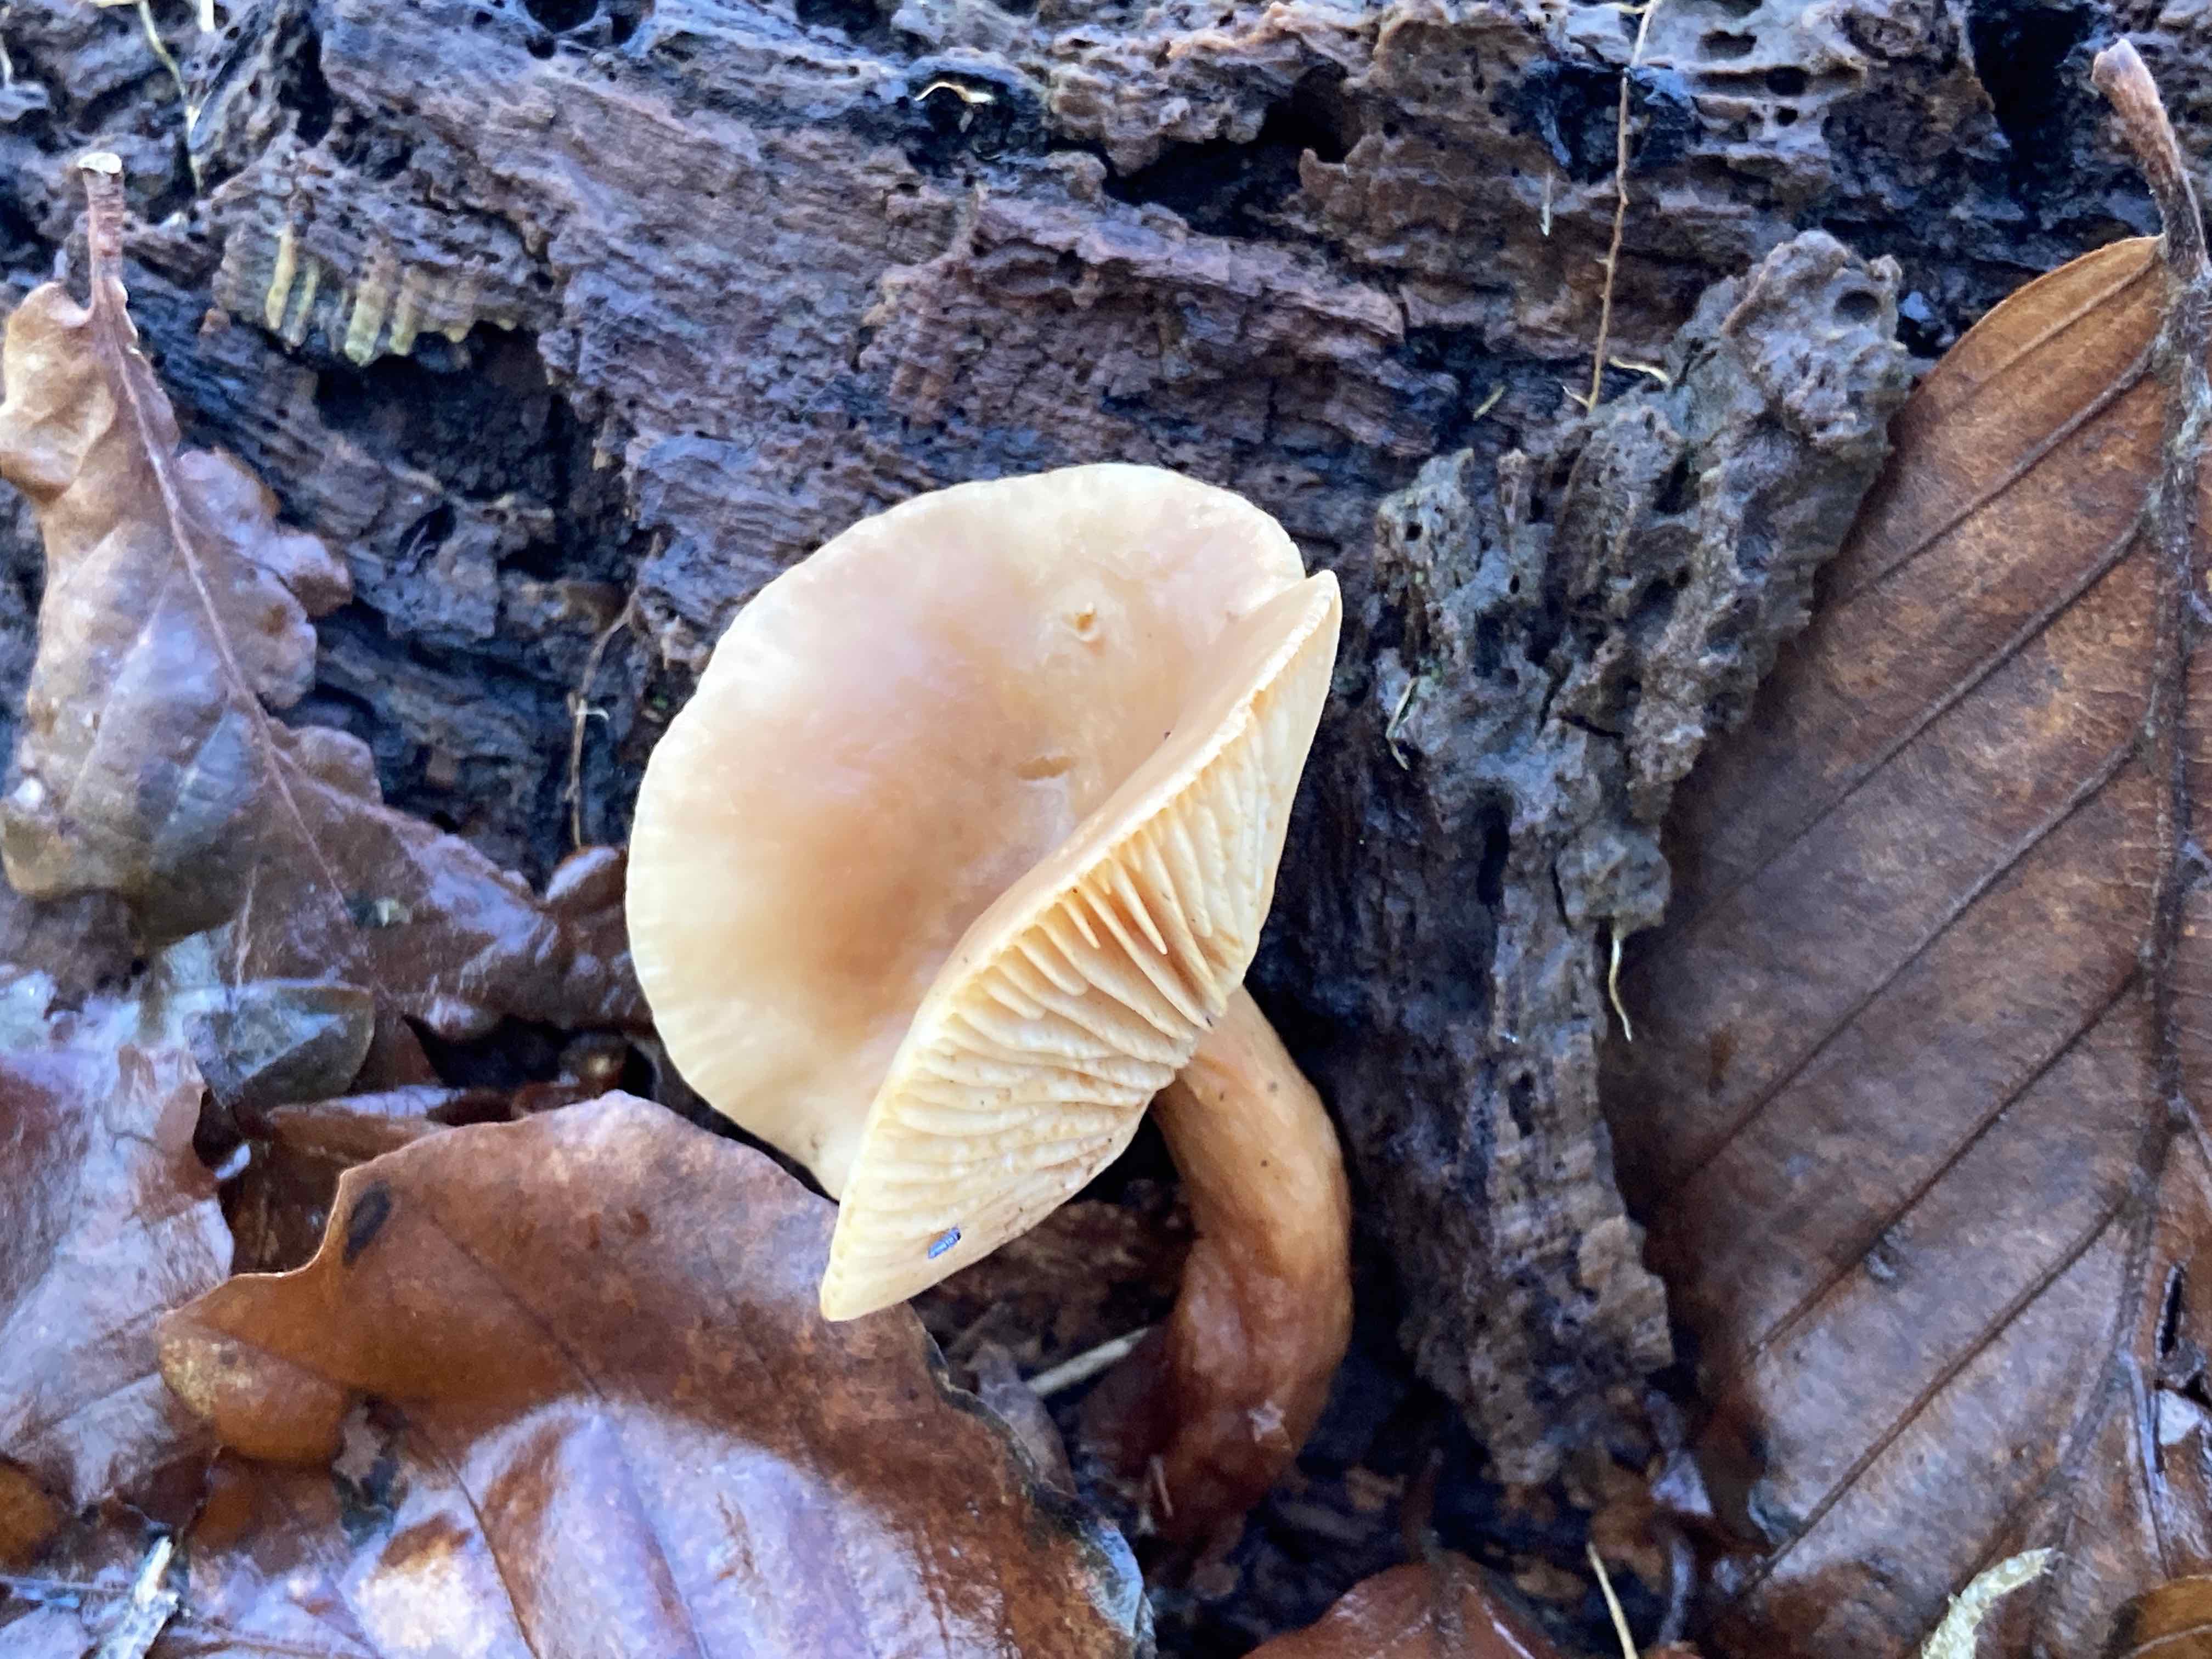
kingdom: Fungi
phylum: Basidiomycota
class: Agaricomycetes
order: Russulales
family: Russulaceae
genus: Lactarius
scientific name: Lactarius subdulcis
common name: sødlig mælkehat
